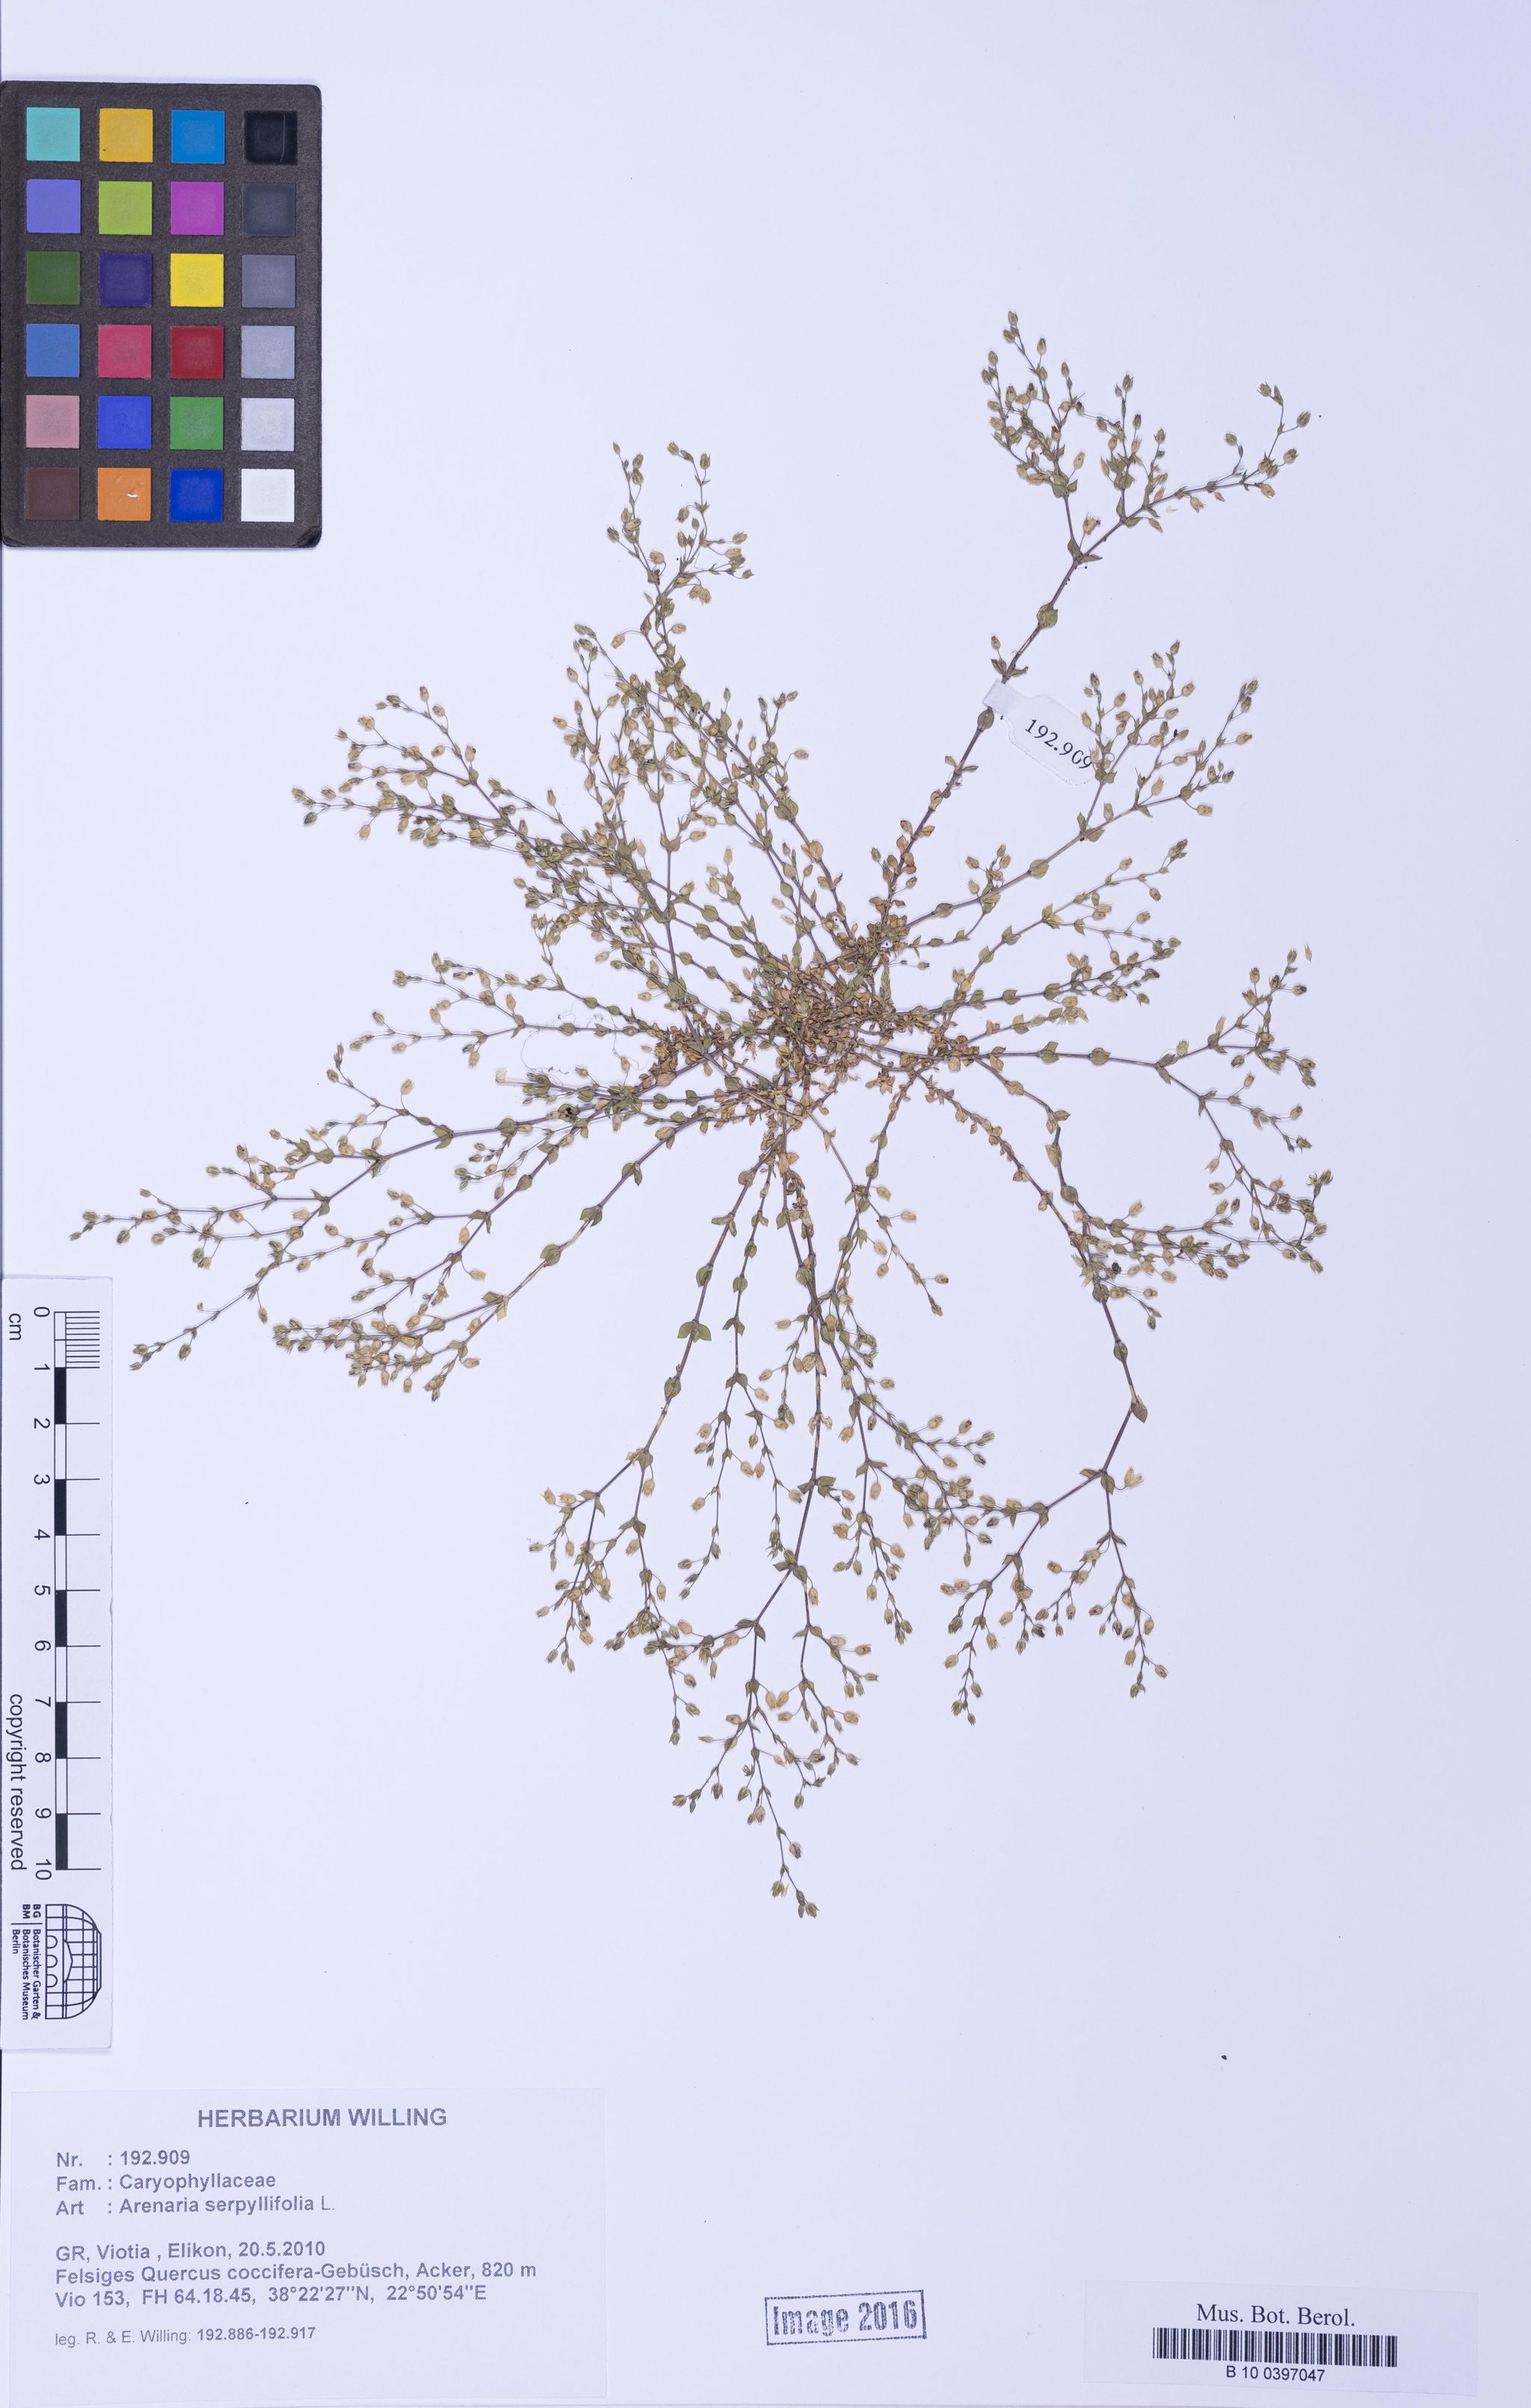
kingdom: Plantae
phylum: Tracheophyta
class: Magnoliopsida
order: Caryophyllales
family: Caryophyllaceae
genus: Arenaria
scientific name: Arenaria serpyllifolia
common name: Thyme-leaved sandwort
